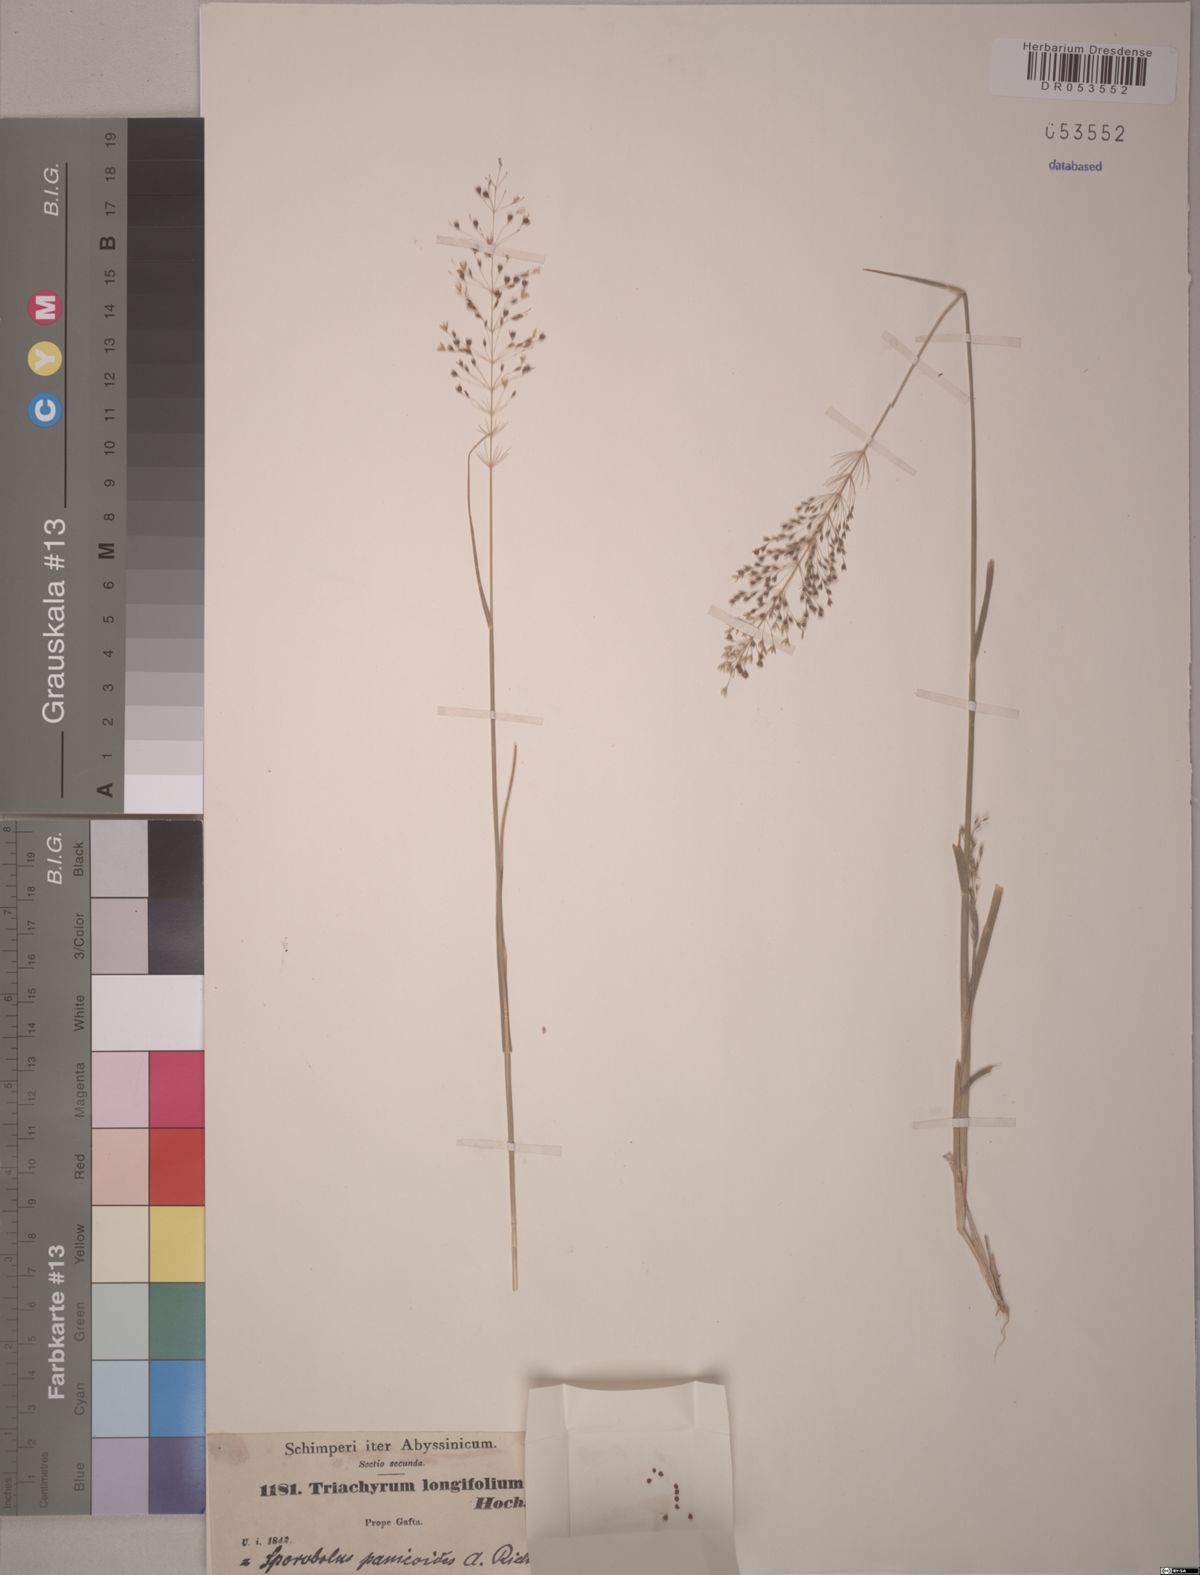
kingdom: Plantae
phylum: Tracheophyta
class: Liliopsida
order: Poales
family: Poaceae
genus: Sporobolus
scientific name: Sporobolus panicoides
